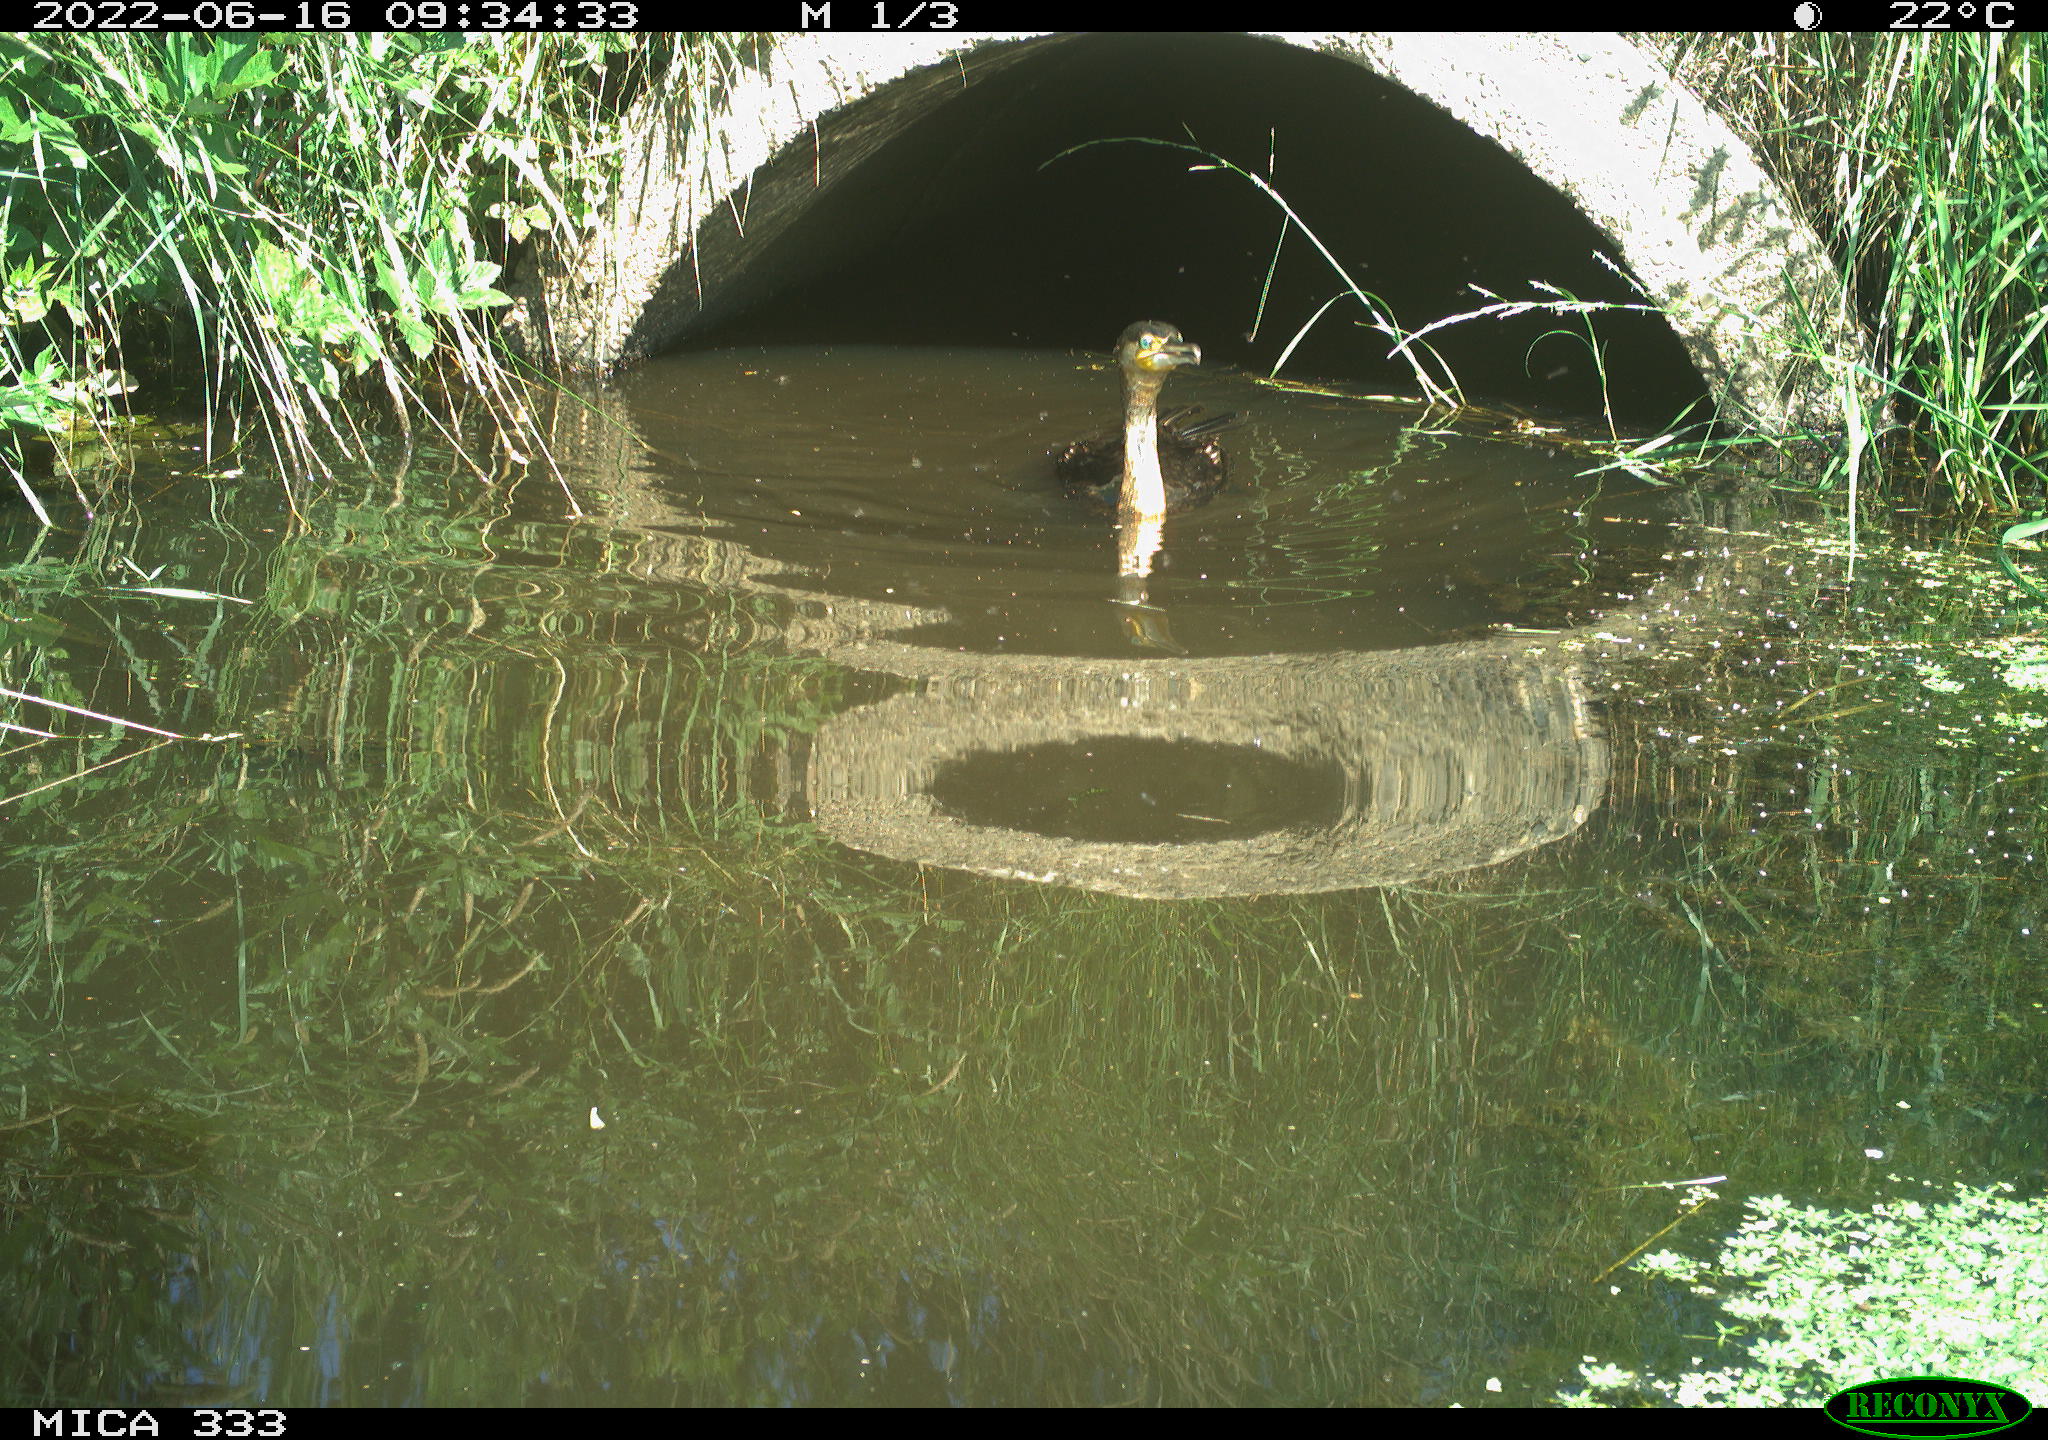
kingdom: Animalia
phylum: Chordata
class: Aves
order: Suliformes
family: Phalacrocoracidae
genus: Phalacrocorax
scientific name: Phalacrocorax carbo
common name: Great cormorant
